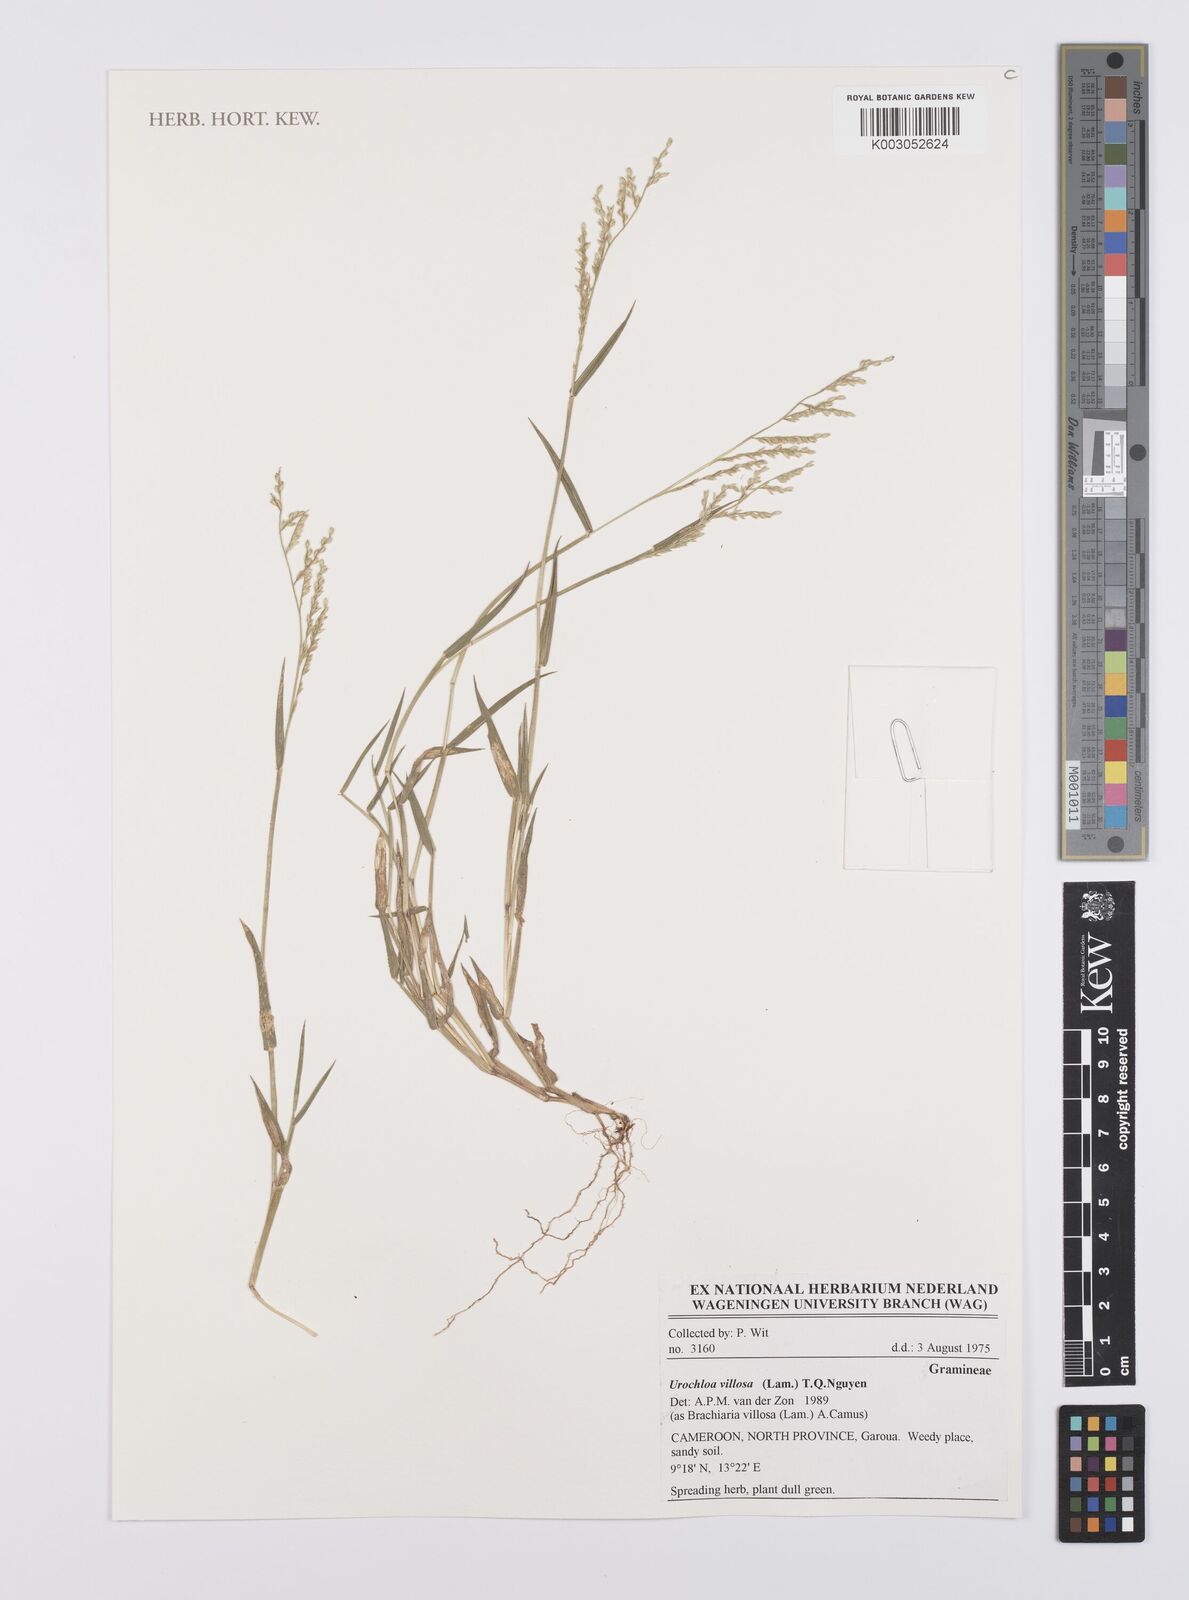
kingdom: Plantae
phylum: Tracheophyta
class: Liliopsida
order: Poales
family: Poaceae
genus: Urochloa
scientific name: Urochloa villosa
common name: Hairy signalgrass
